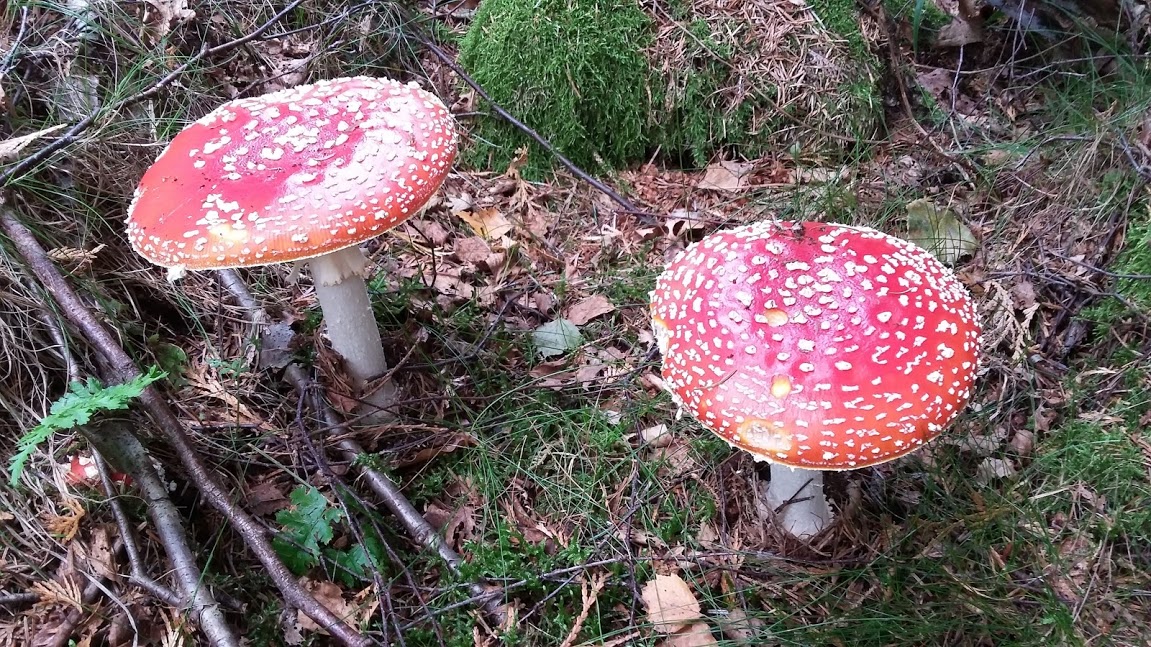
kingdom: Fungi
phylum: Basidiomycota
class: Agaricomycetes
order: Agaricales
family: Amanitaceae
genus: Amanita
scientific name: Amanita muscaria
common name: rød fluesvamp
